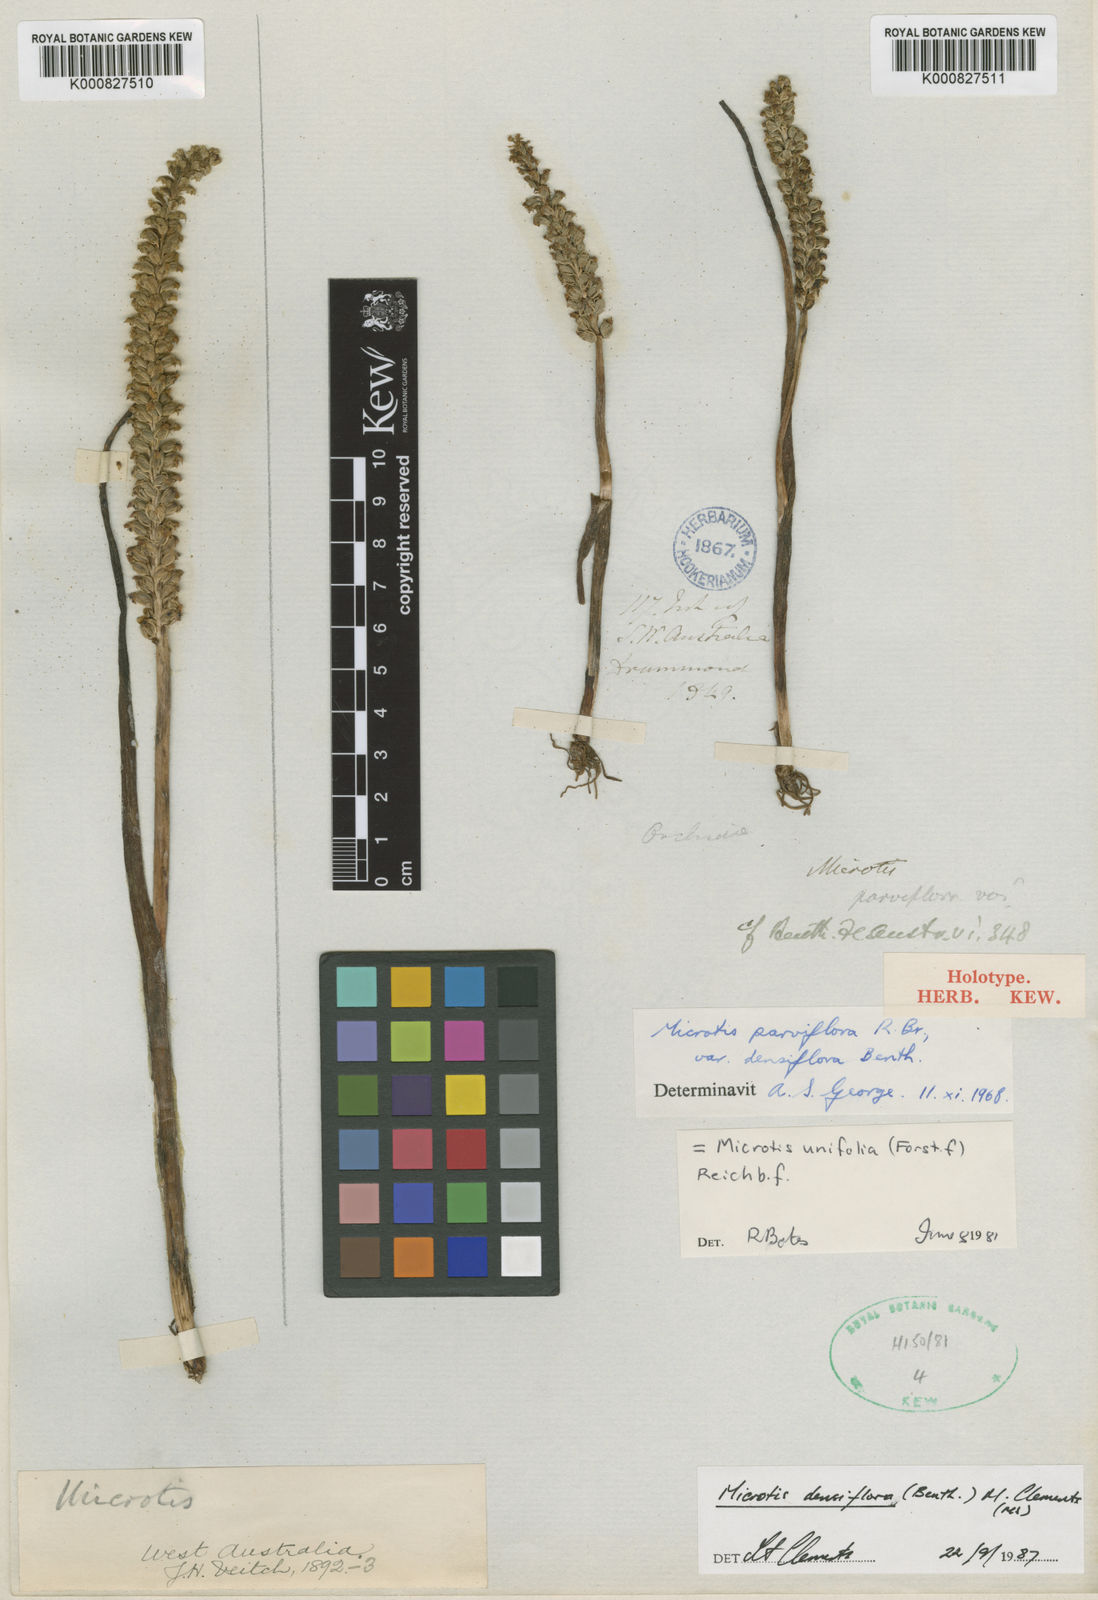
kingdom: Plantae
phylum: Tracheophyta
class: Liliopsida
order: Asparagales
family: Orchidaceae
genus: Microtis
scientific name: Microtis parviflora
